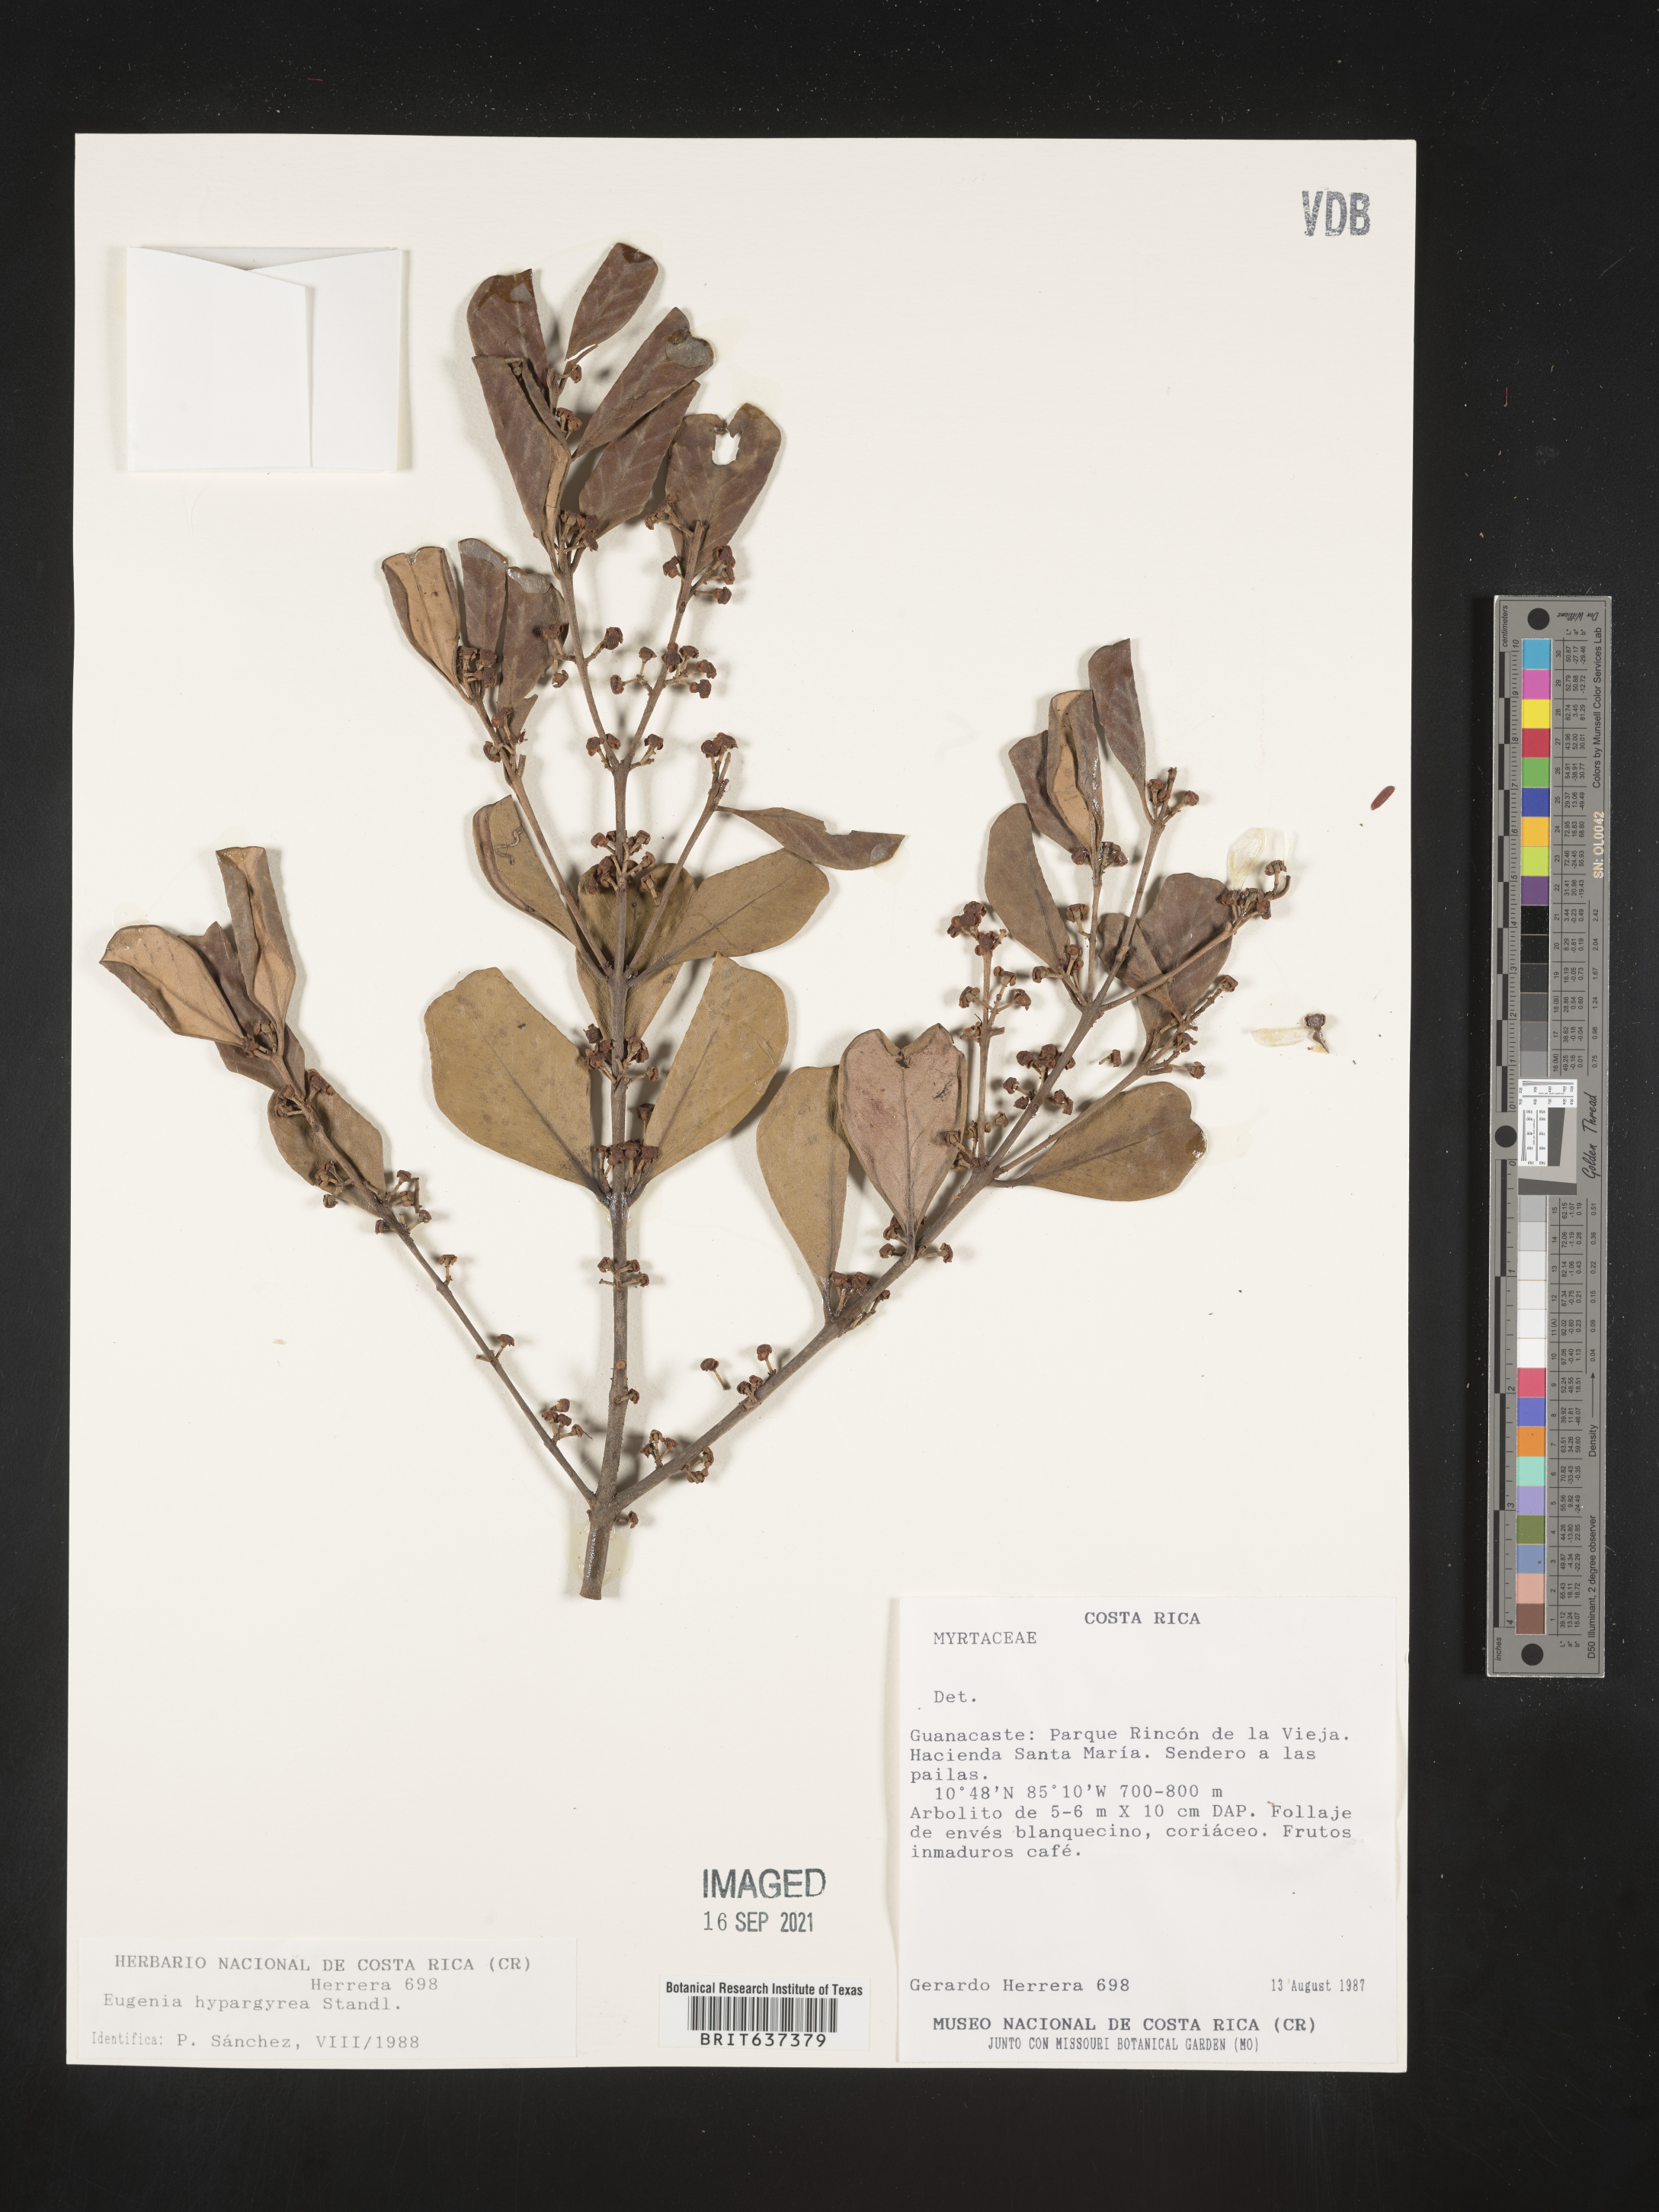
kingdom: Plantae
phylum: Tracheophyta
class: Magnoliopsida
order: Myrtales
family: Myrtaceae
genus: Eugenia
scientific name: Eugenia
